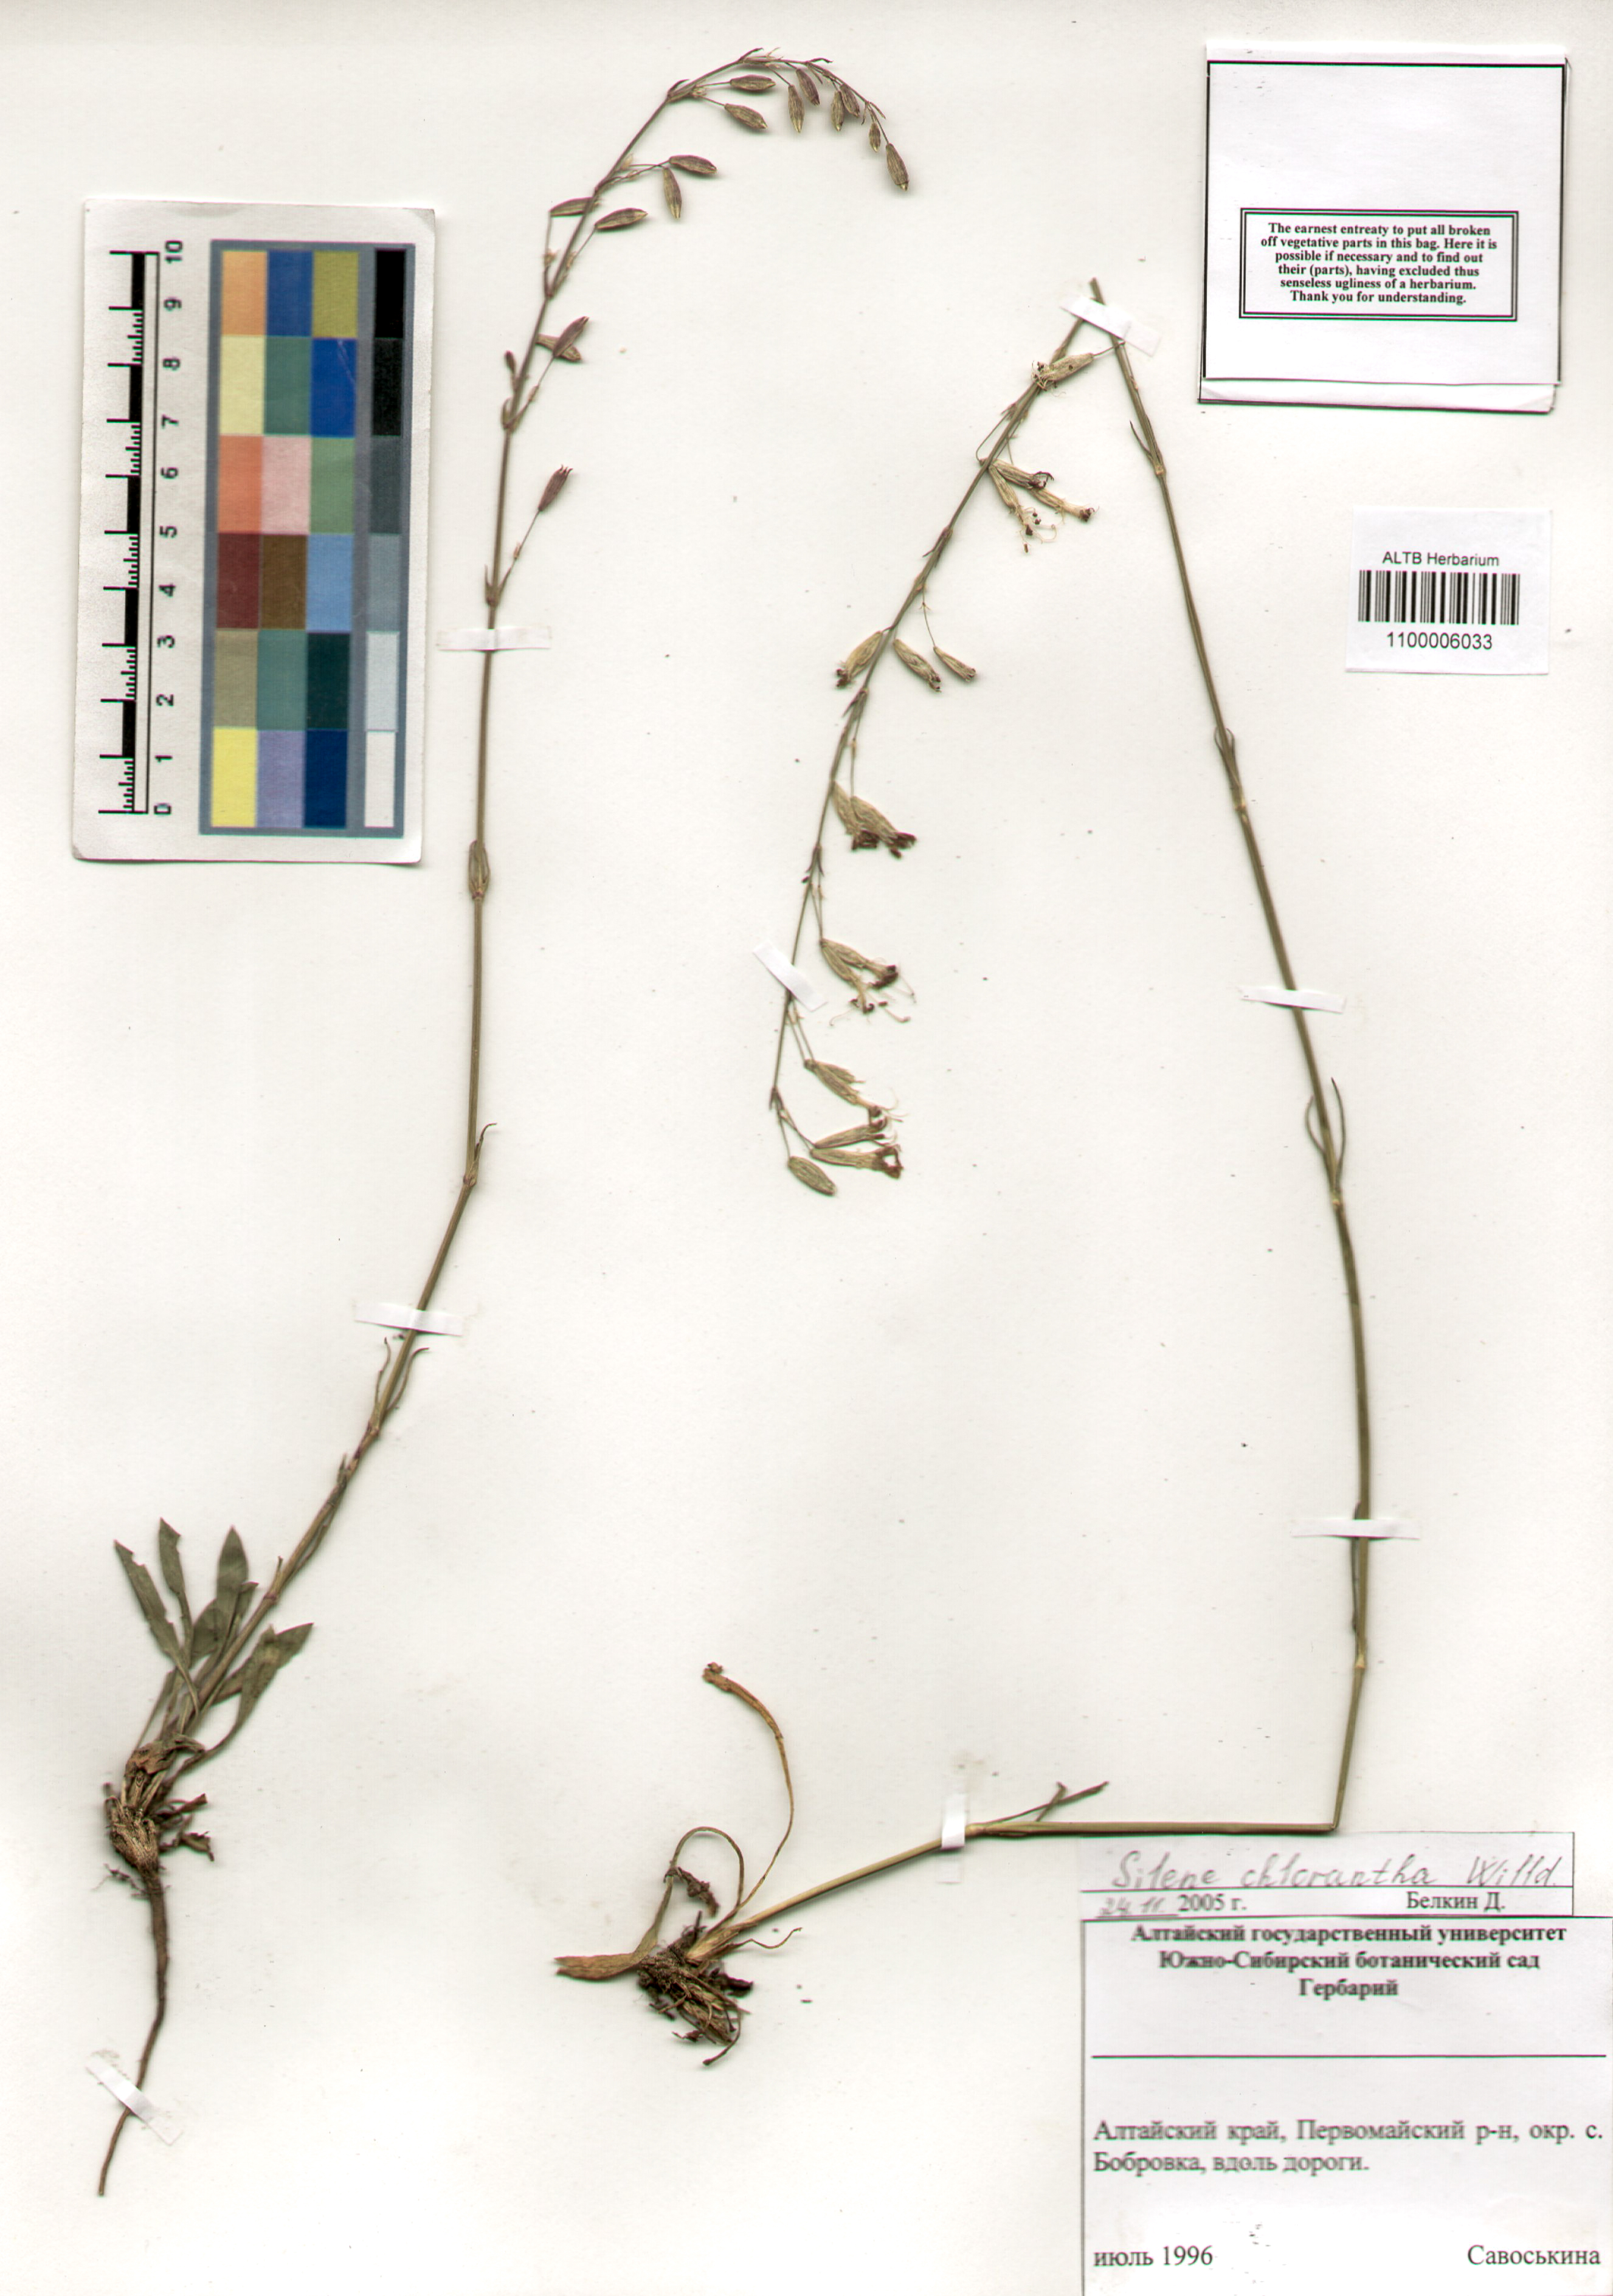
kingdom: Plantae
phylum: Tracheophyta
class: Magnoliopsida
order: Caryophyllales
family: Caryophyllaceae
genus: Silene
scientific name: Silene chlorantha
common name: Yellowgreen catchfly
